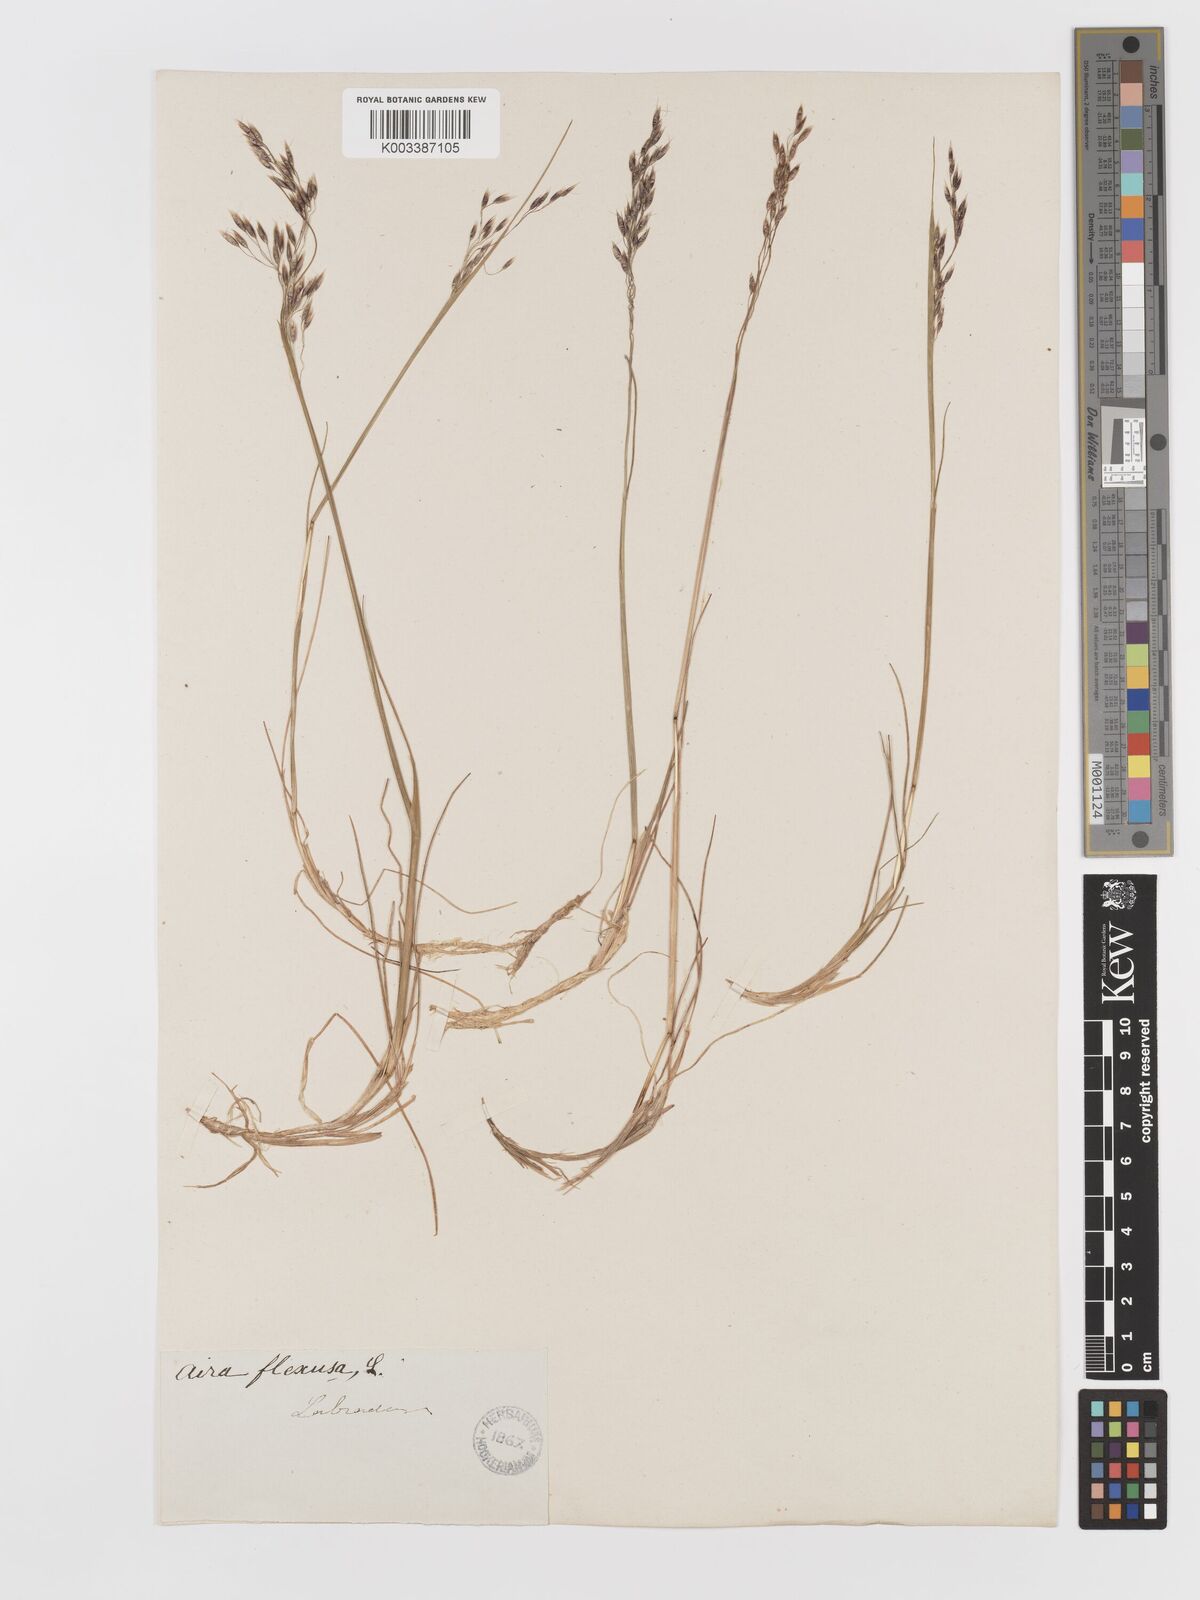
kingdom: Plantae
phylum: Tracheophyta
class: Liliopsida
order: Poales
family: Poaceae
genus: Avenella
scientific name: Avenella flexuosa
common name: Wavy hairgrass
